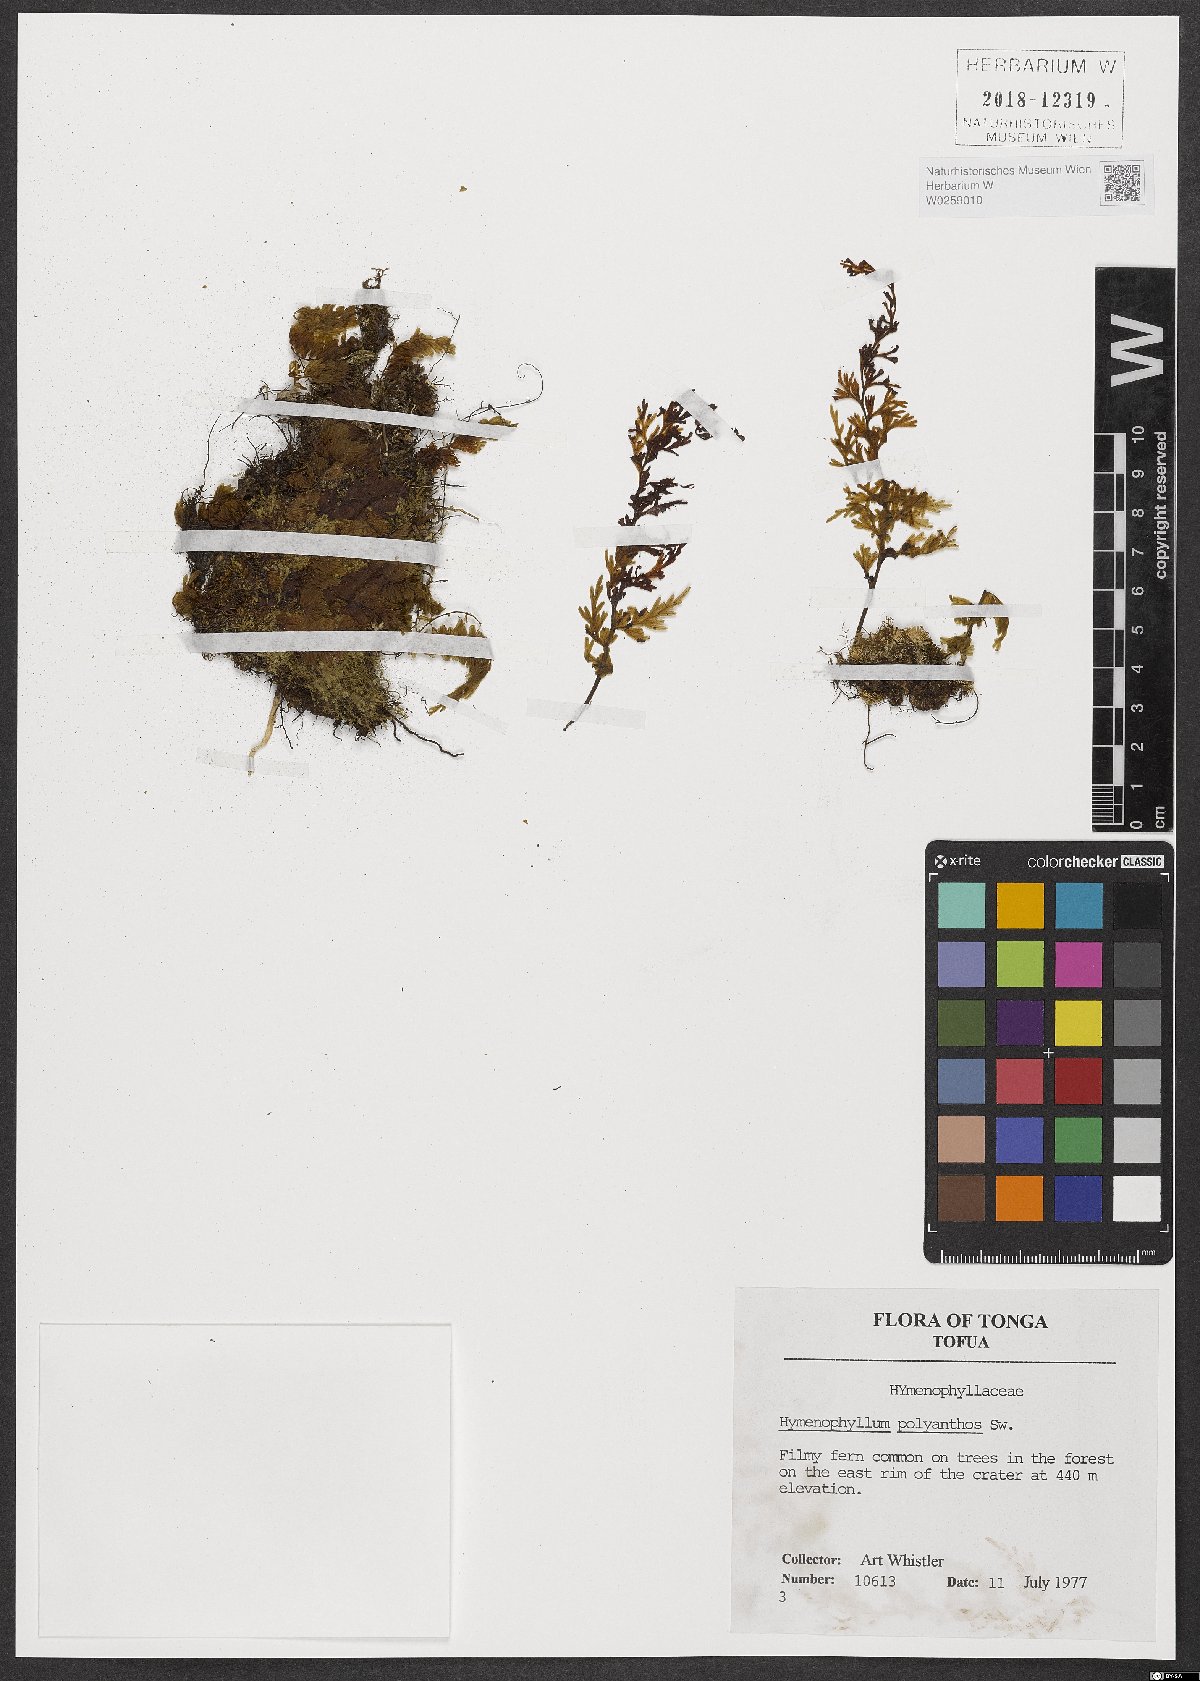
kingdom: Plantae
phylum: Tracheophyta
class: Polypodiopsida
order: Hymenophyllales
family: Hymenophyllaceae
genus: Hymenophyllum
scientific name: Hymenophyllum polyanthos
